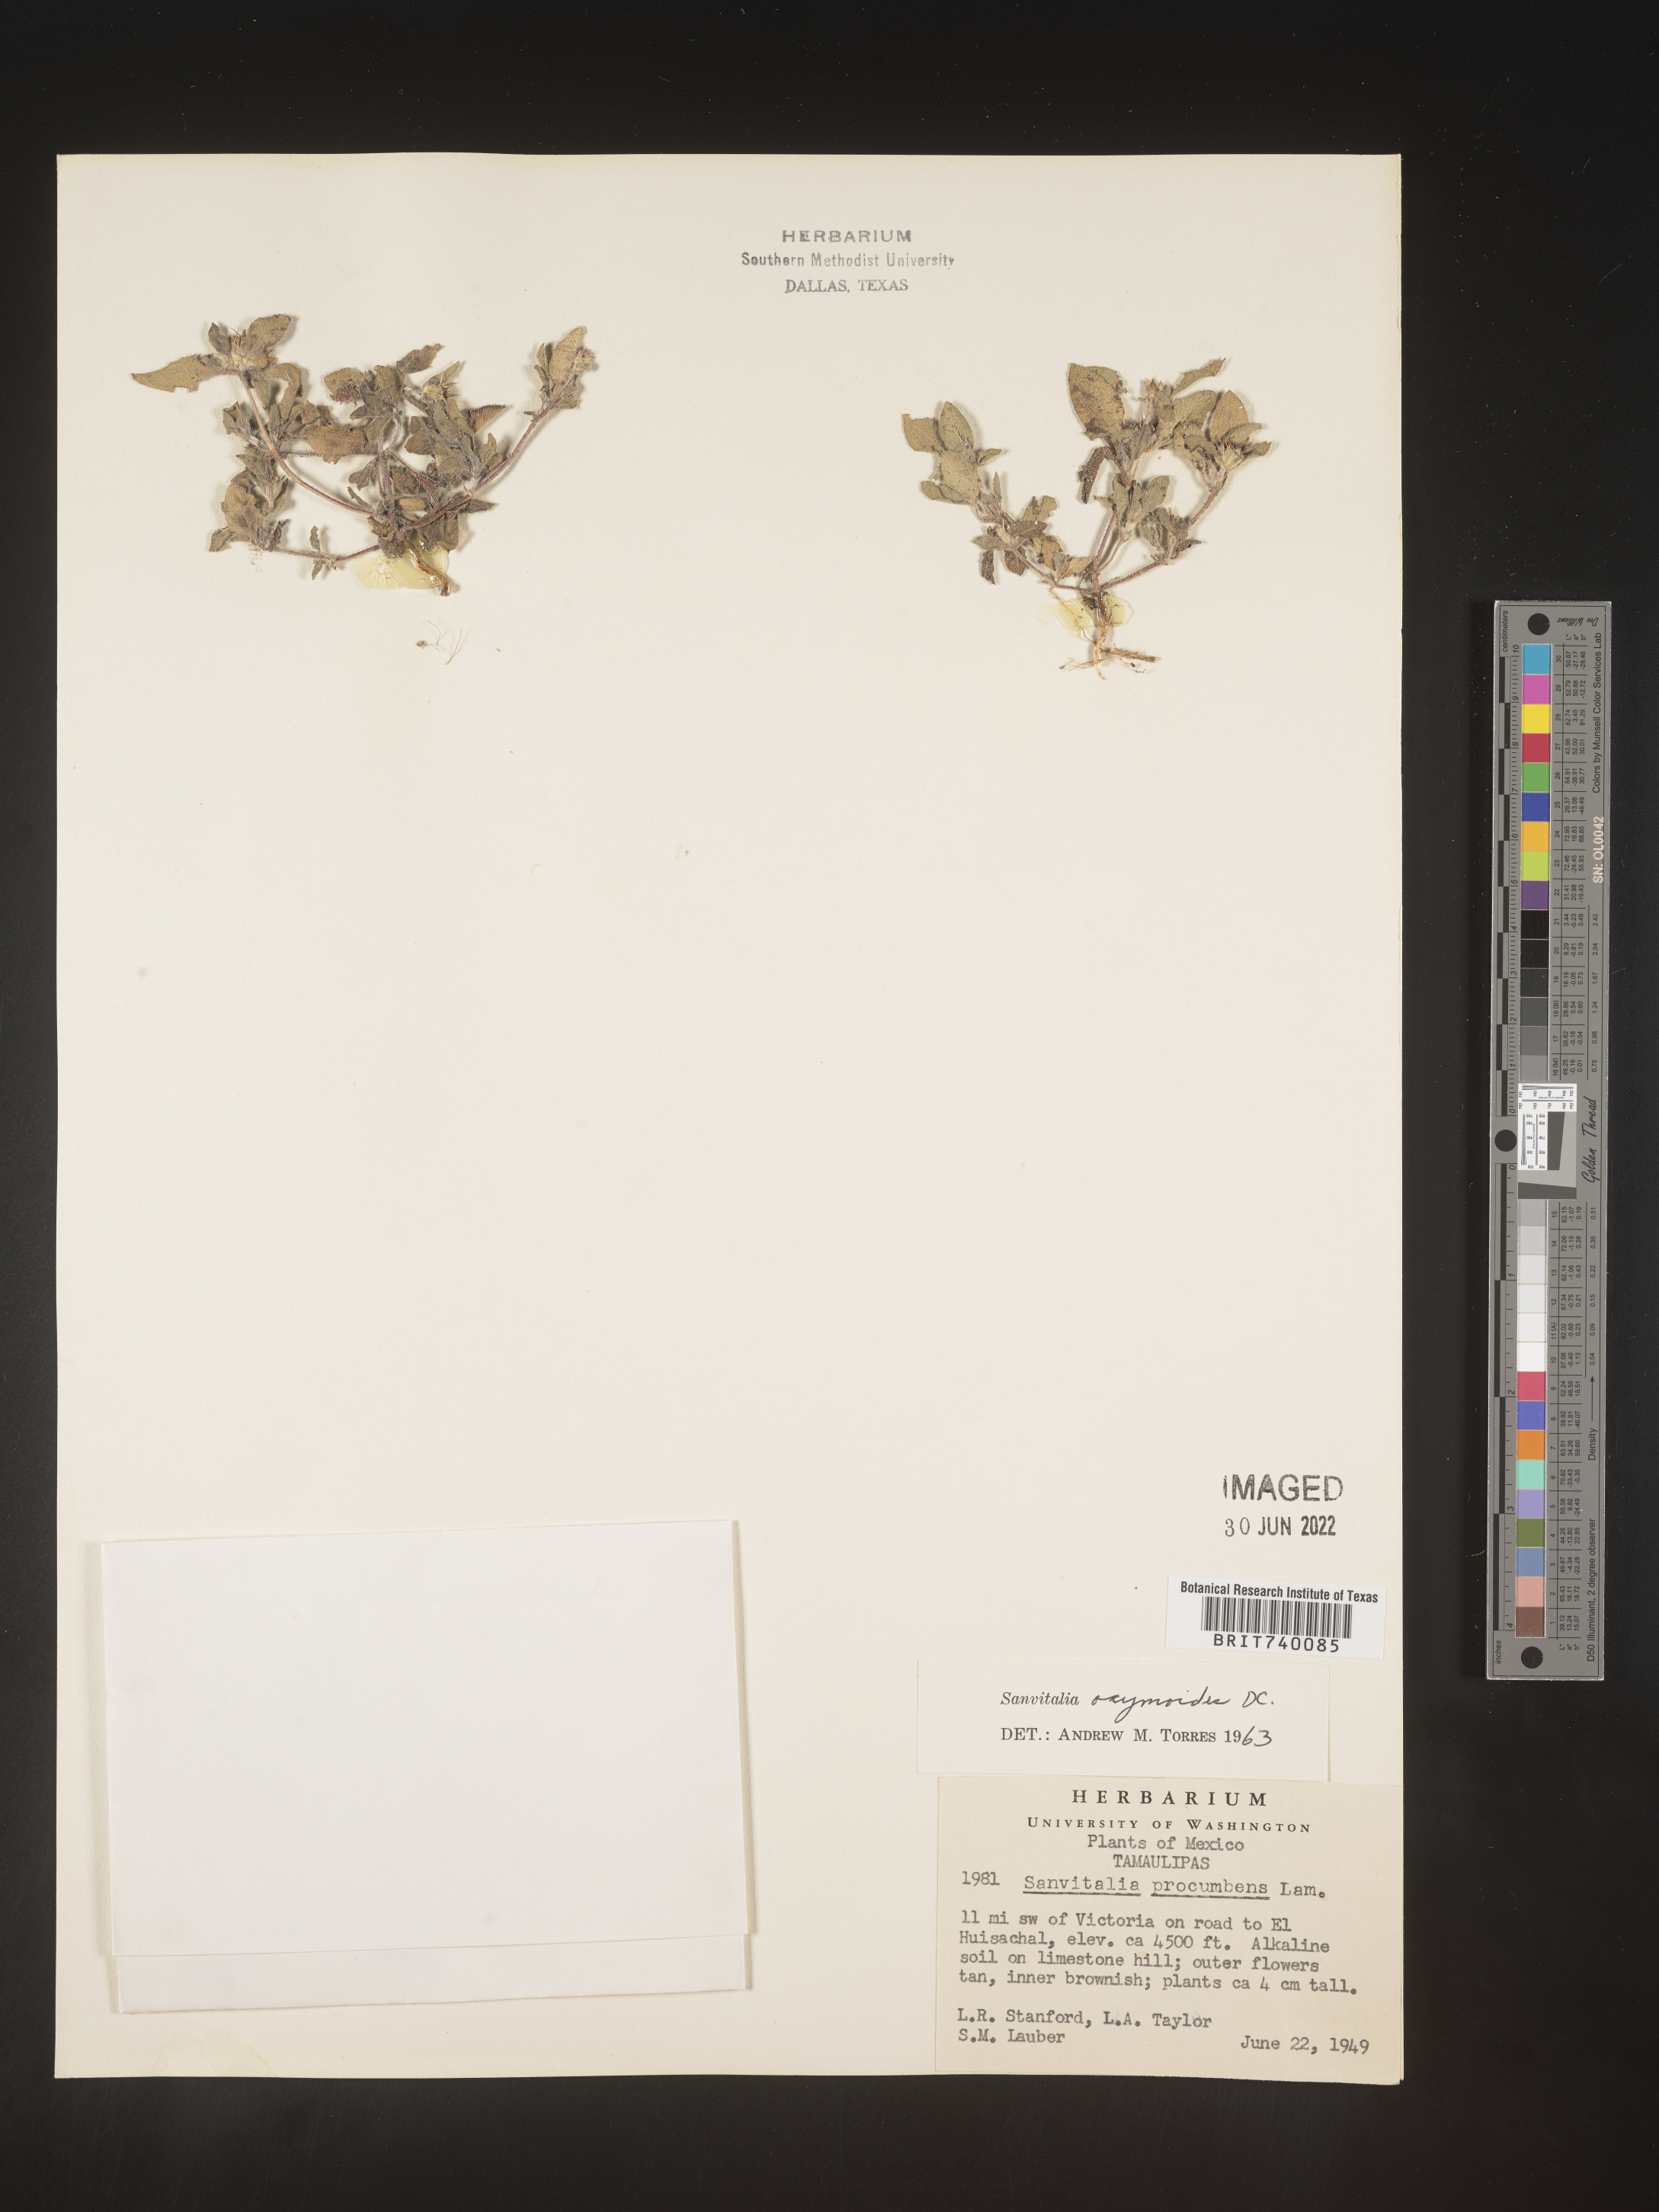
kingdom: Plantae
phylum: Tracheophyta
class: Magnoliopsida
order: Asterales
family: Asteraceae
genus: Sanvitalia
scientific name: Sanvitalia
